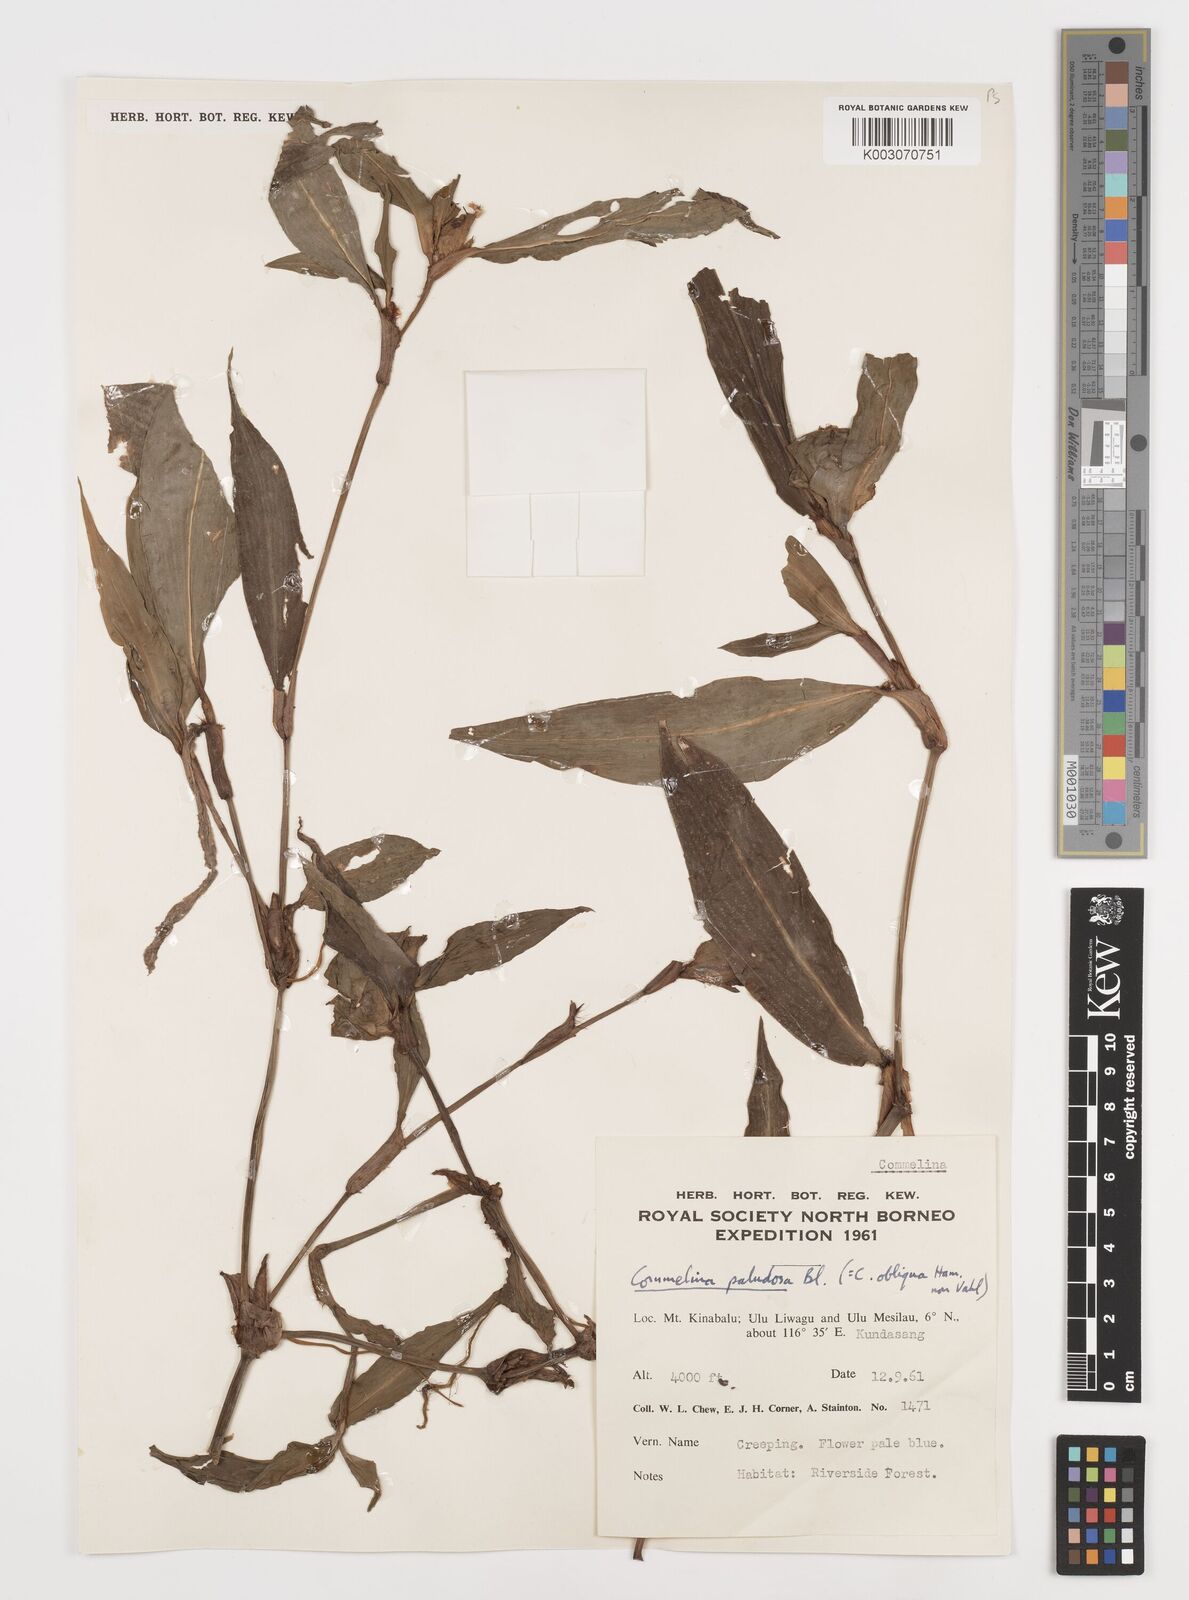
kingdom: Plantae
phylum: Tracheophyta
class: Liliopsida
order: Commelinales
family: Commelinaceae
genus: Commelina
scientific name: Commelina paludosa
